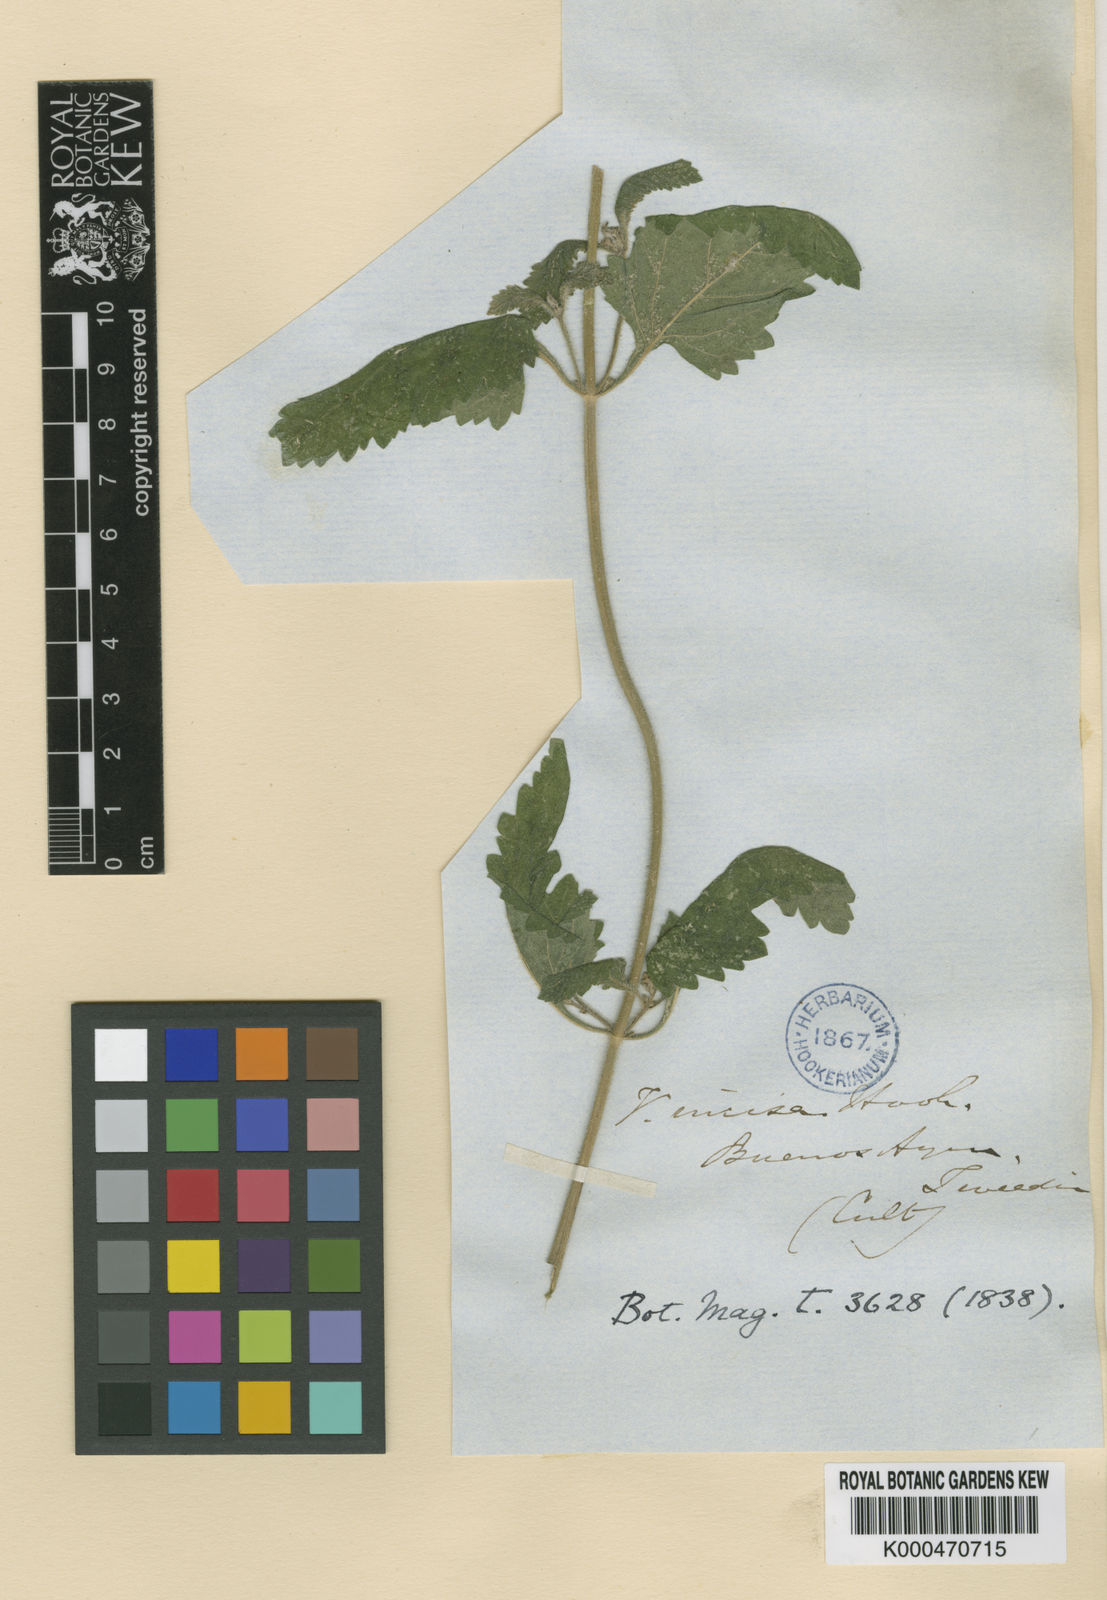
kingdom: Plantae
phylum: Tracheophyta
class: Magnoliopsida
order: Lamiales
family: Verbenaceae
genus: Verbena
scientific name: Verbena tweedieana
